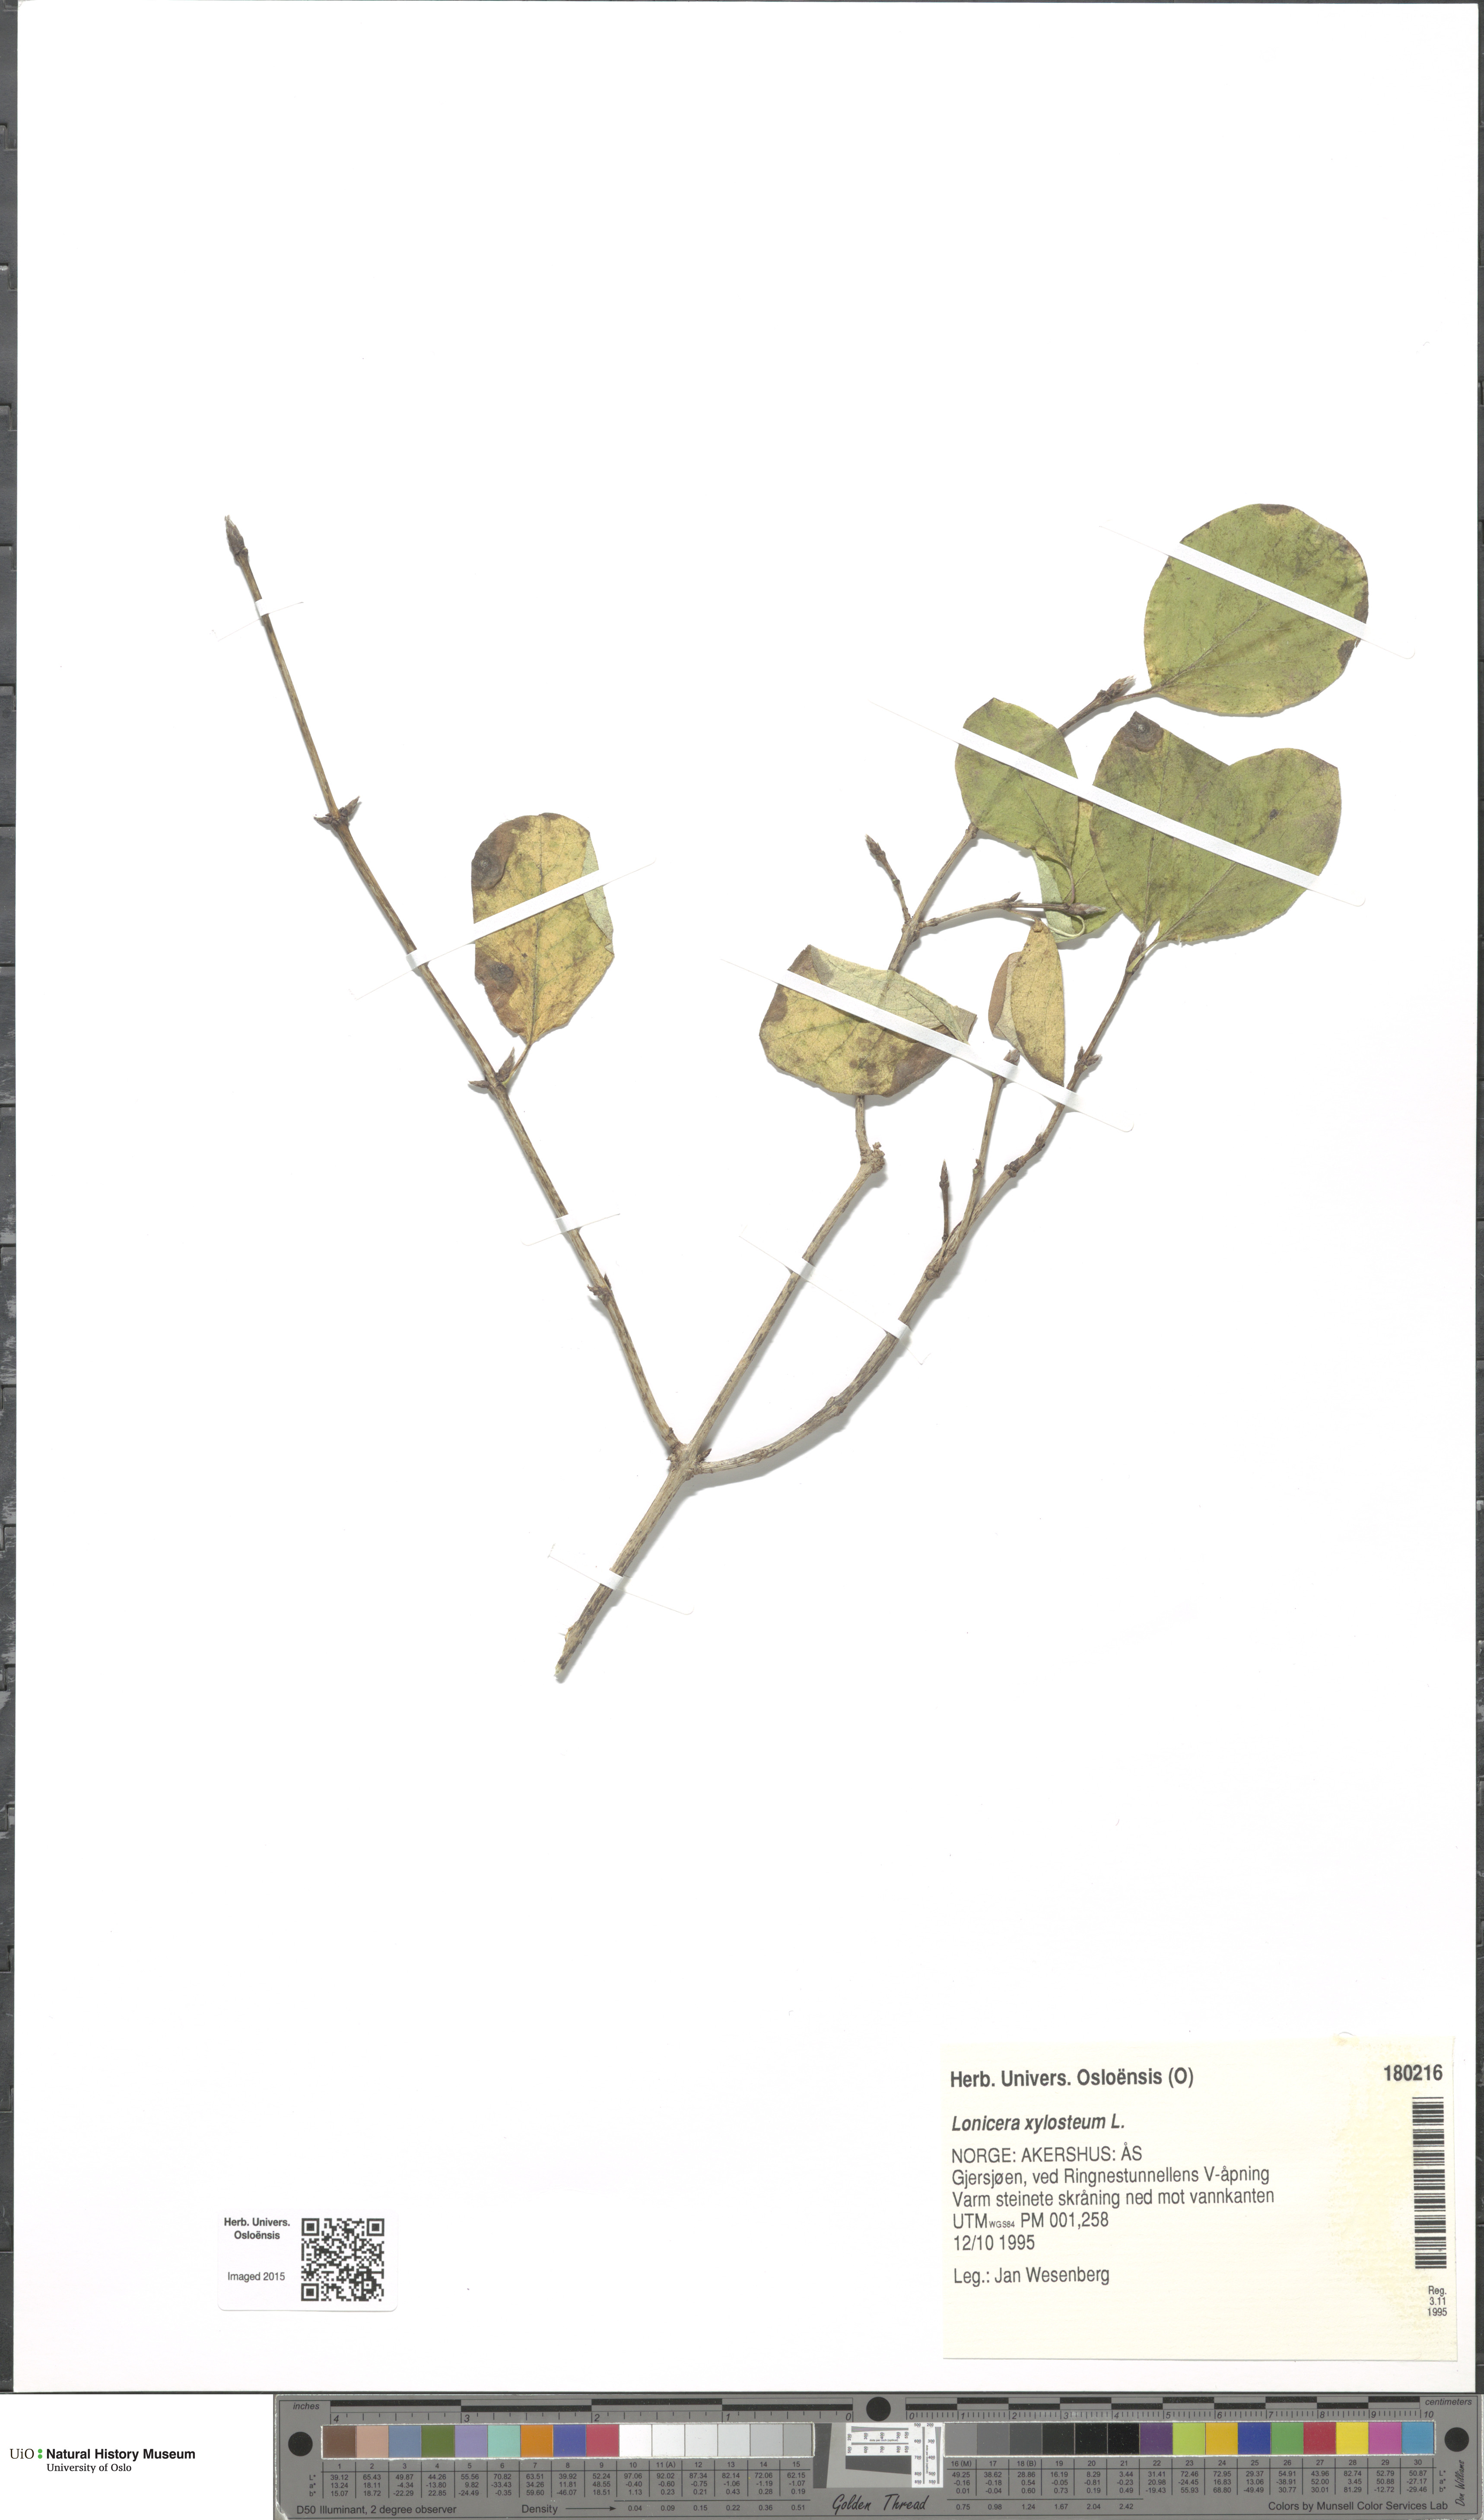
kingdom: Plantae
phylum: Tracheophyta
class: Magnoliopsida
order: Dipsacales
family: Caprifoliaceae
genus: Lonicera
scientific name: Lonicera xylosteum
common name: Fly honeysuckle
